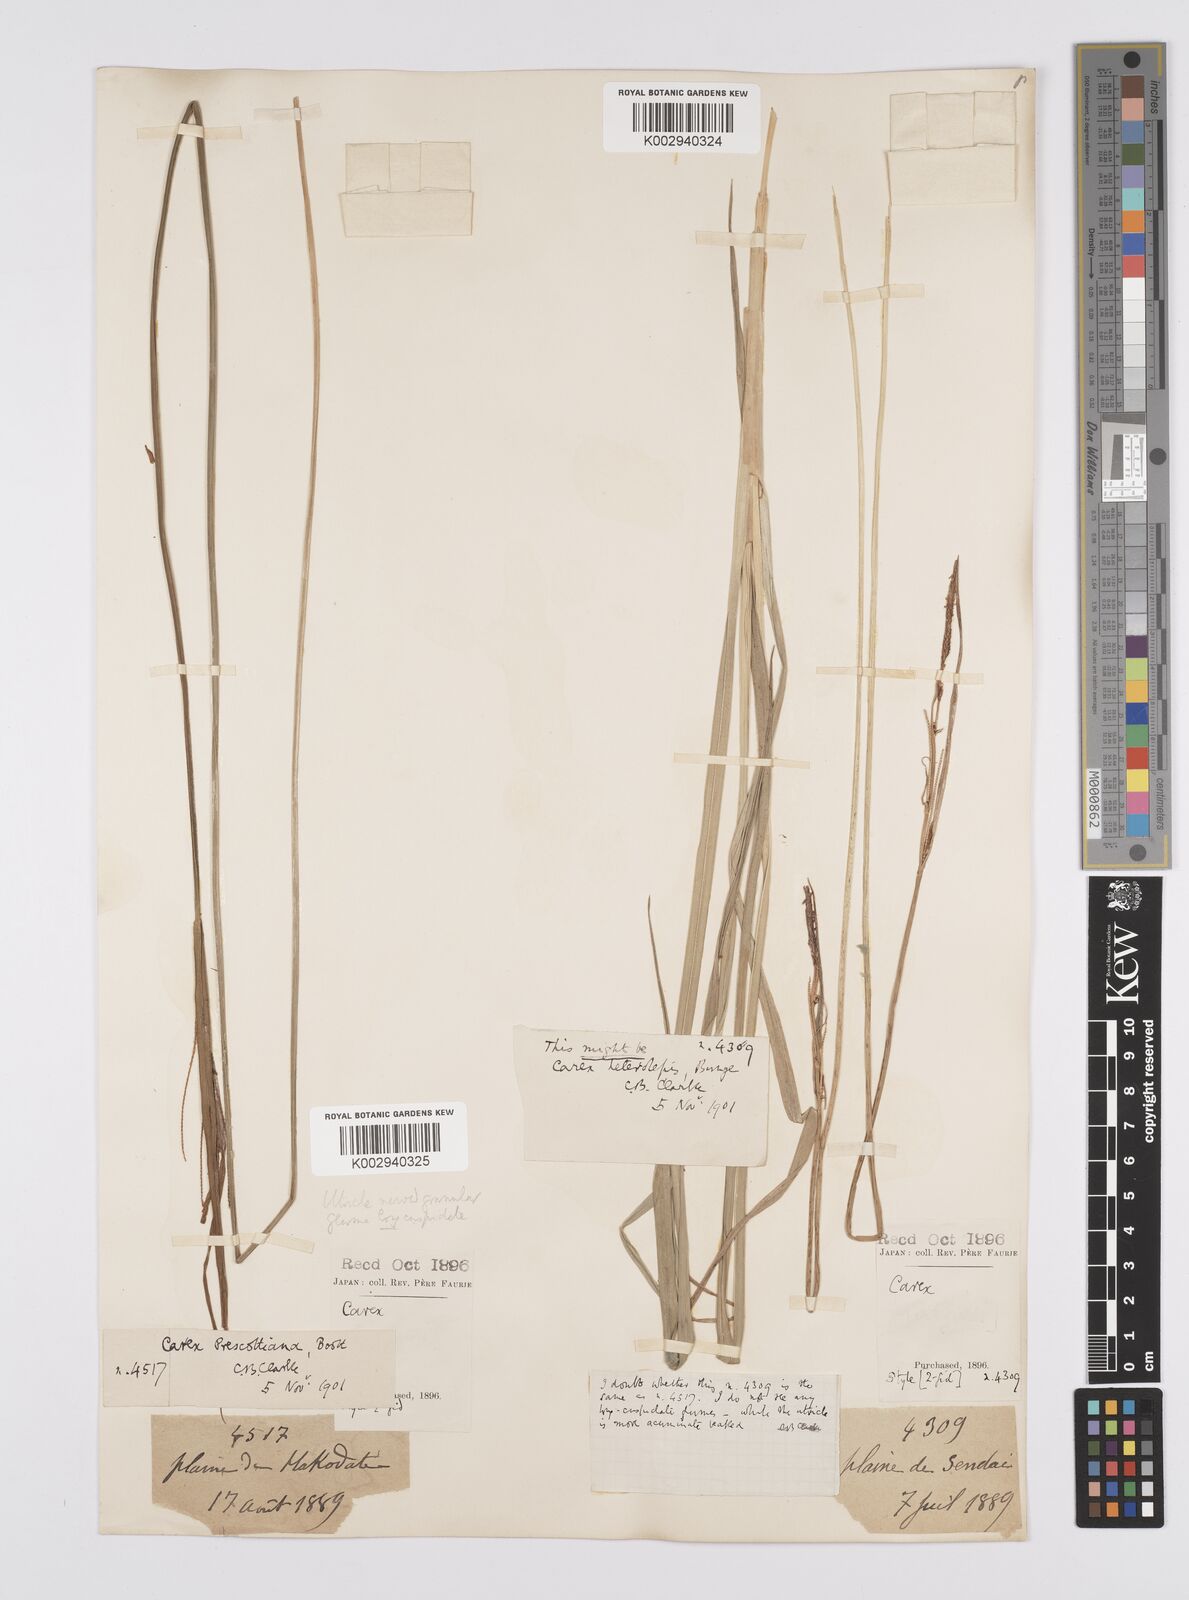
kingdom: Plantae
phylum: Tracheophyta
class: Liliopsida
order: Poales
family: Cyperaceae
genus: Carex
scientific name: Carex prescottiana
